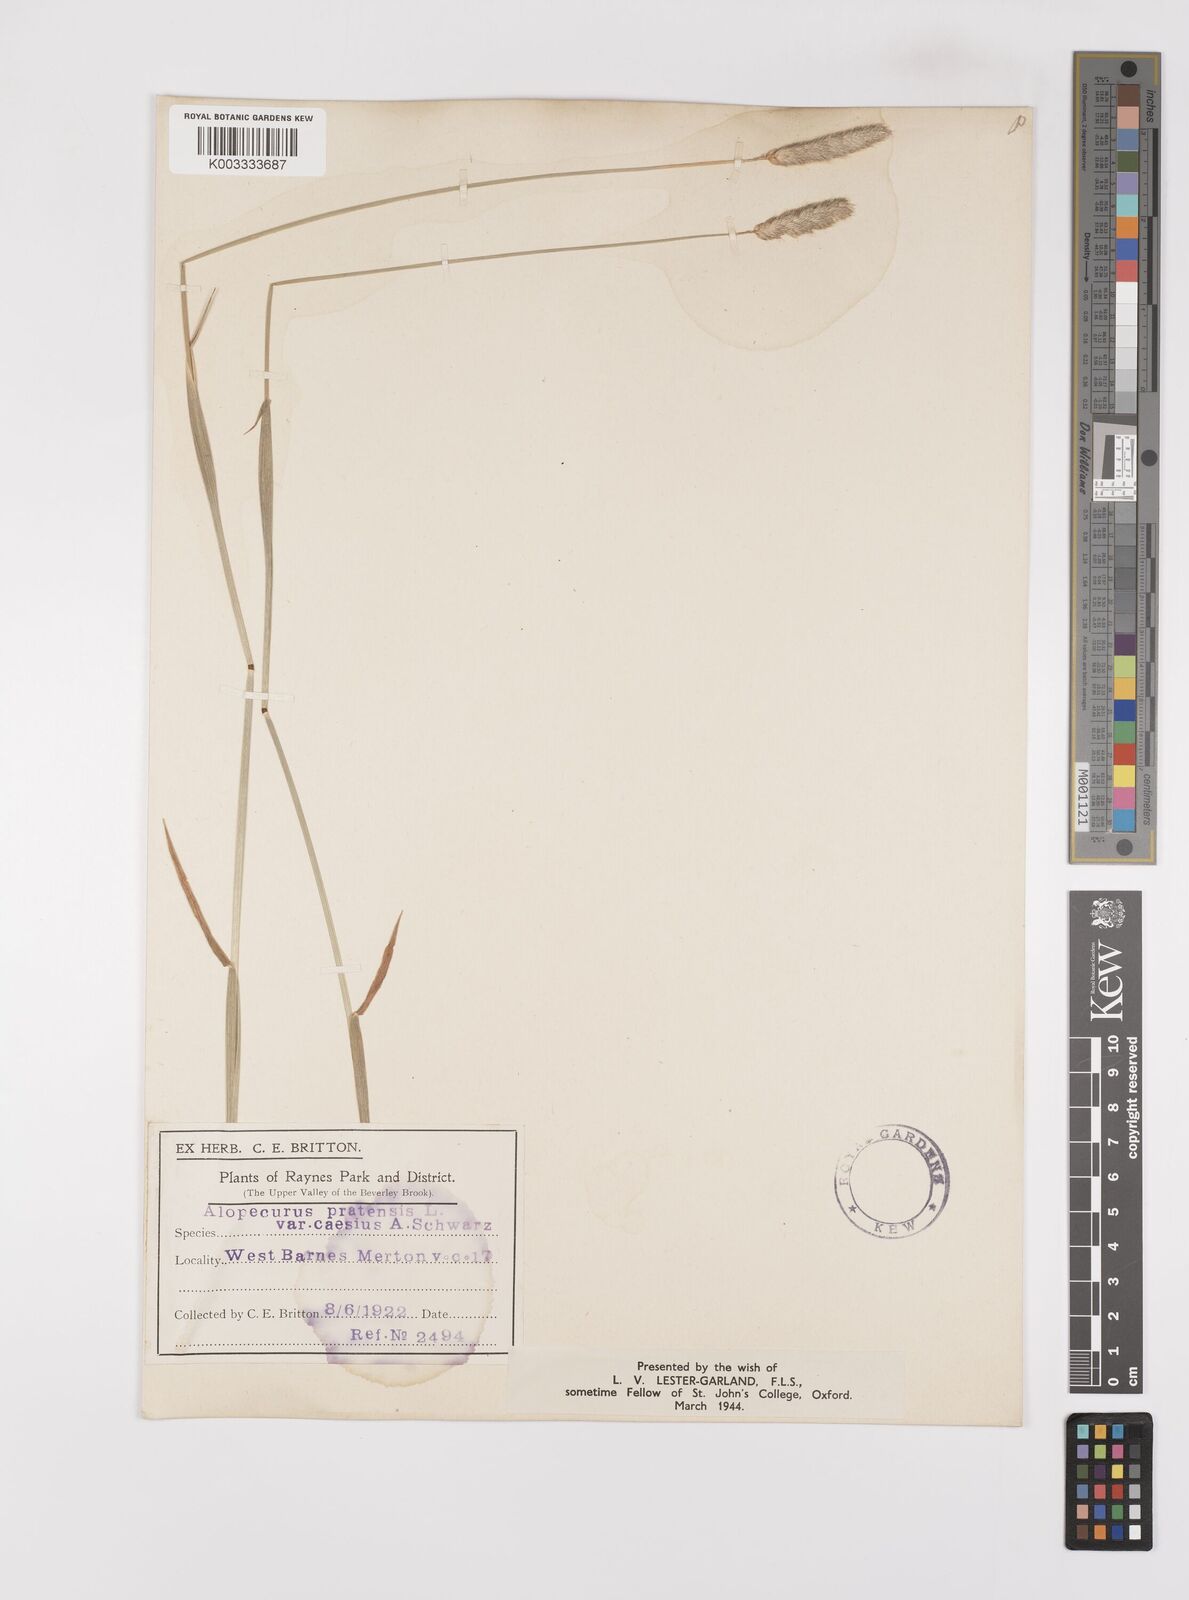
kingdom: Plantae
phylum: Tracheophyta
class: Liliopsida
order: Poales
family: Poaceae
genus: Alopecurus
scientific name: Alopecurus pratensis
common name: Meadow foxtail
